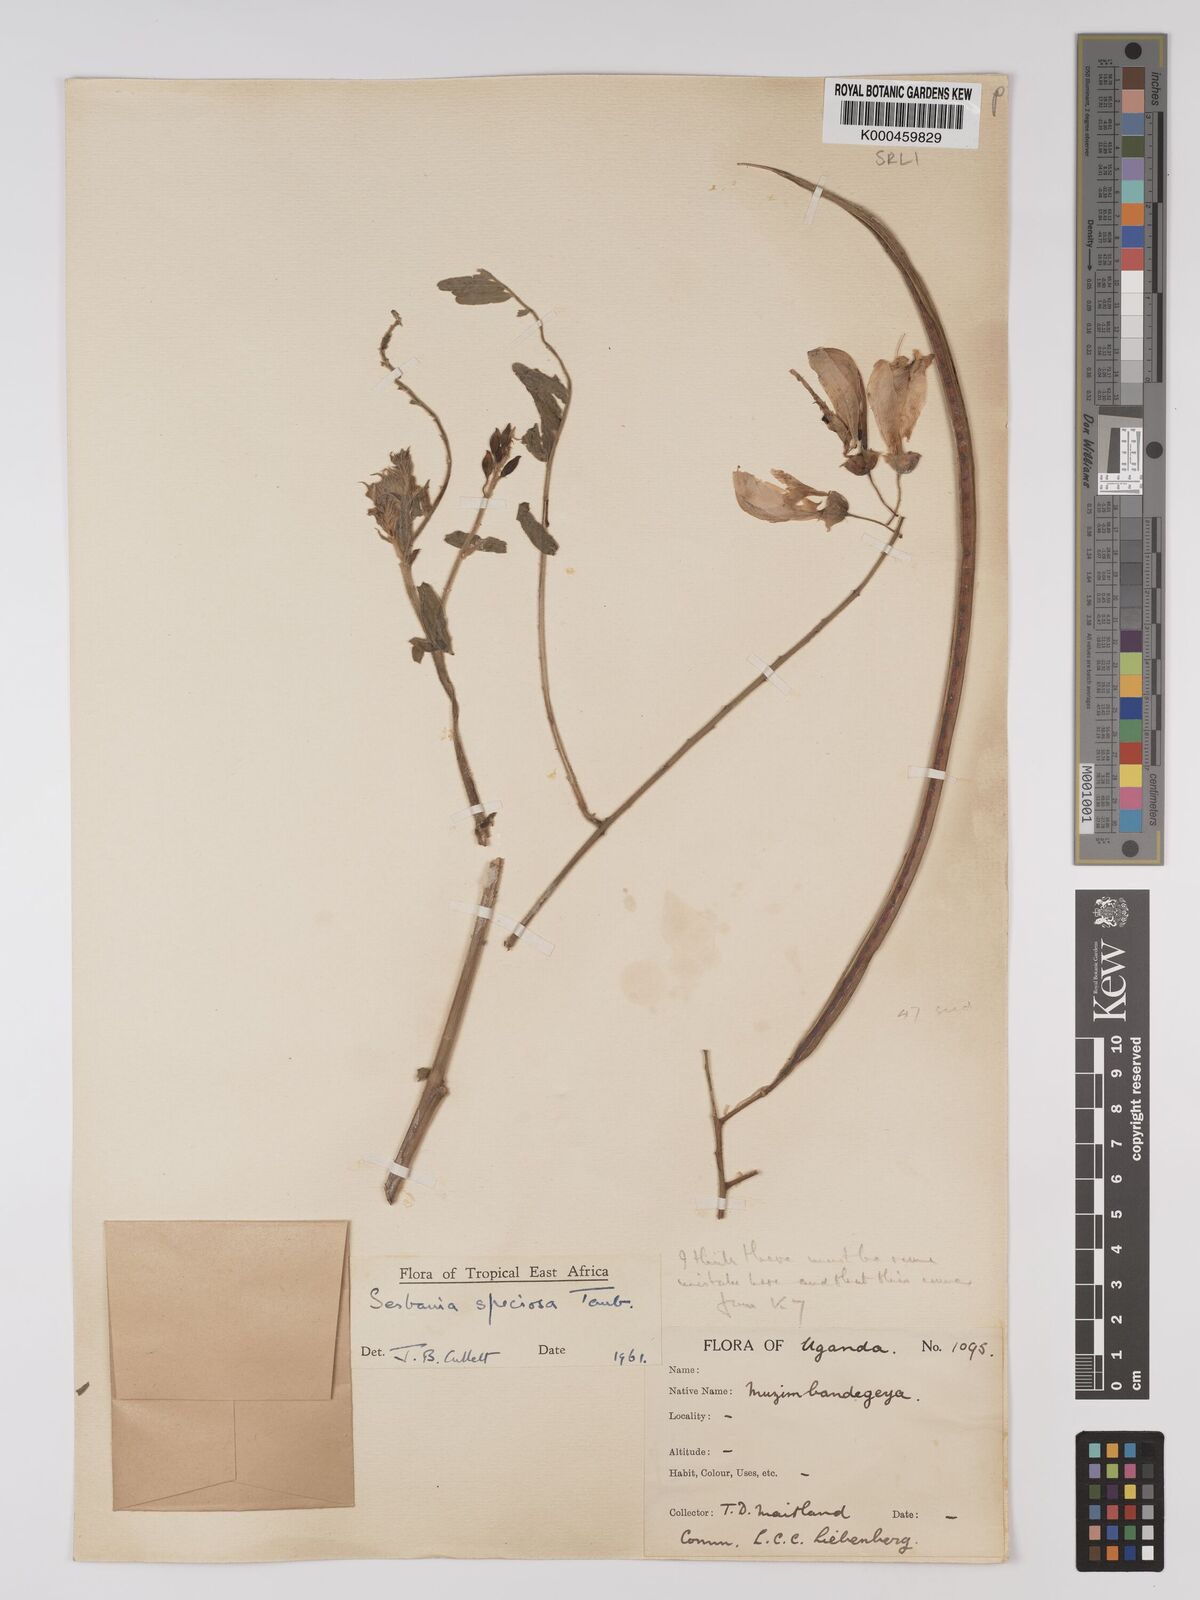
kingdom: Plantae
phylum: Tracheophyta
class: Magnoliopsida
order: Fabales
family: Fabaceae
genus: Sesbania
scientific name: Sesbania
